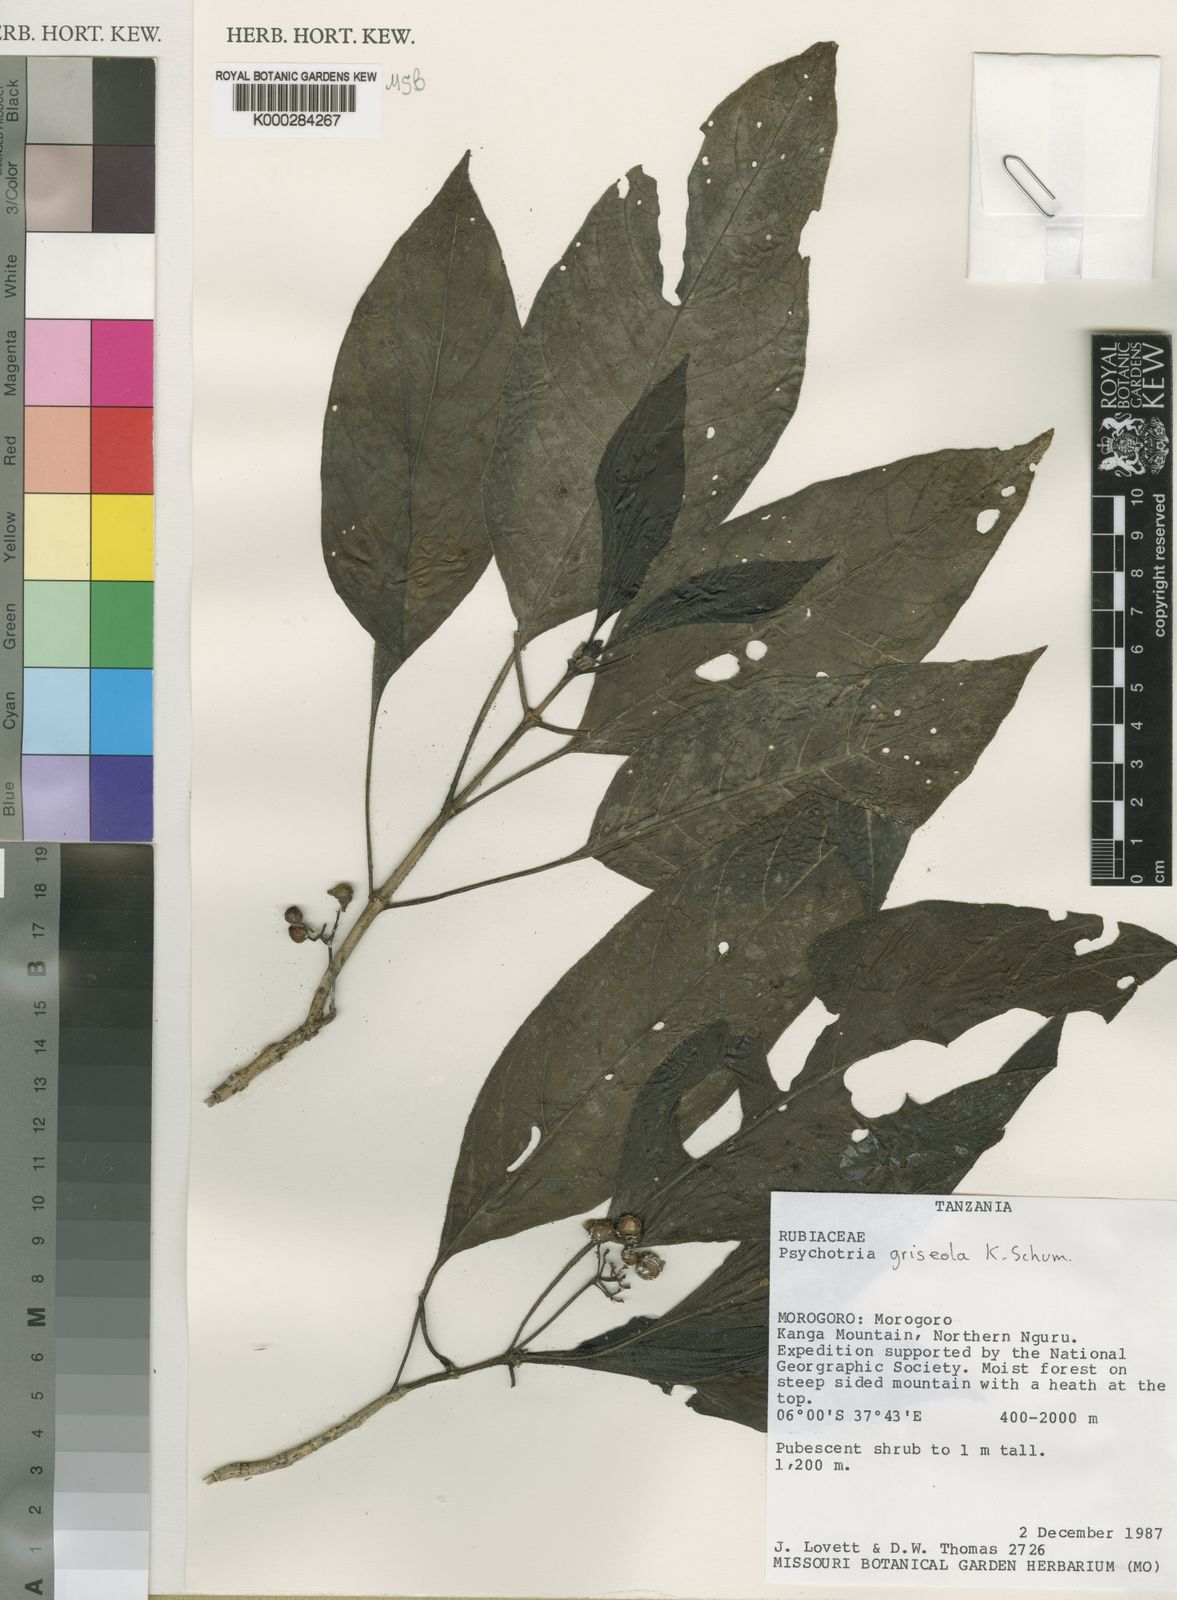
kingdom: Plantae
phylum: Tracheophyta
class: Magnoliopsida
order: Gentianales
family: Rubiaceae
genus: Psychotria
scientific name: Psychotria griseola
